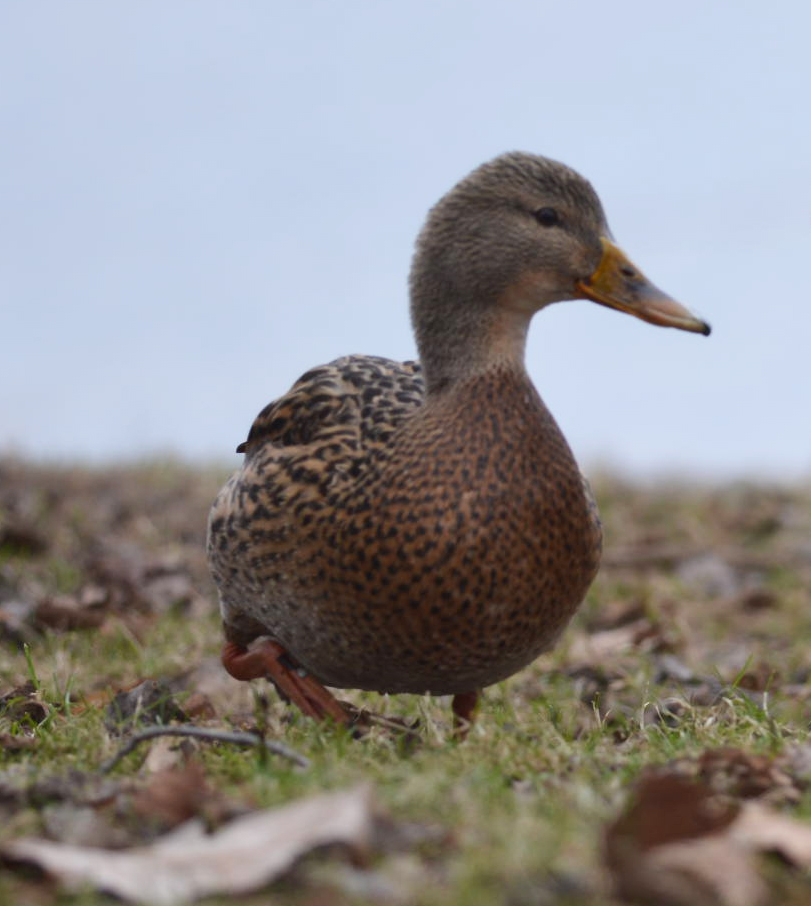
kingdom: Animalia
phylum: Chordata
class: Aves
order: Anseriformes
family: Anatidae
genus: Anas
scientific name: Anas platyrhynchos
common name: Mallard
